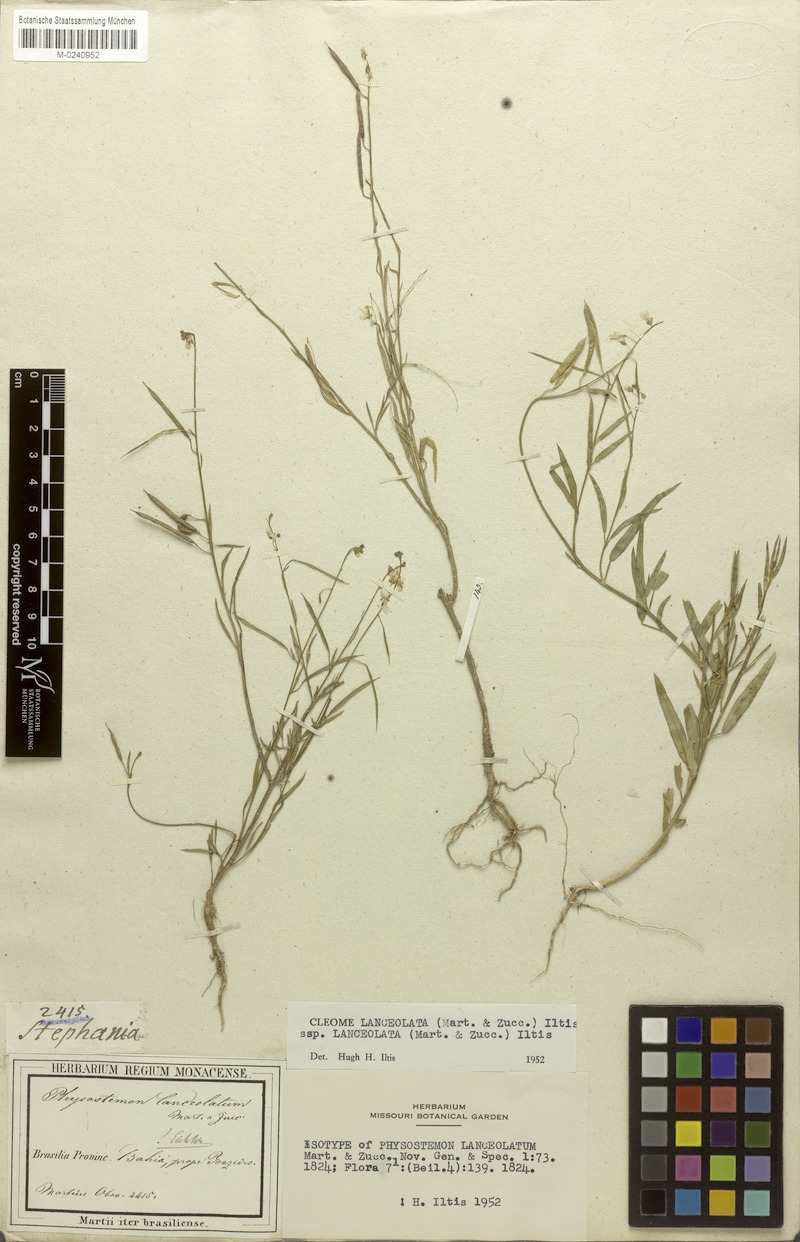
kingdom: Plantae
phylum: Tracheophyta
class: Magnoliopsida
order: Brassicales
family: Cleomaceae
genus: Physostemon
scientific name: Physostemon lanceolatus
